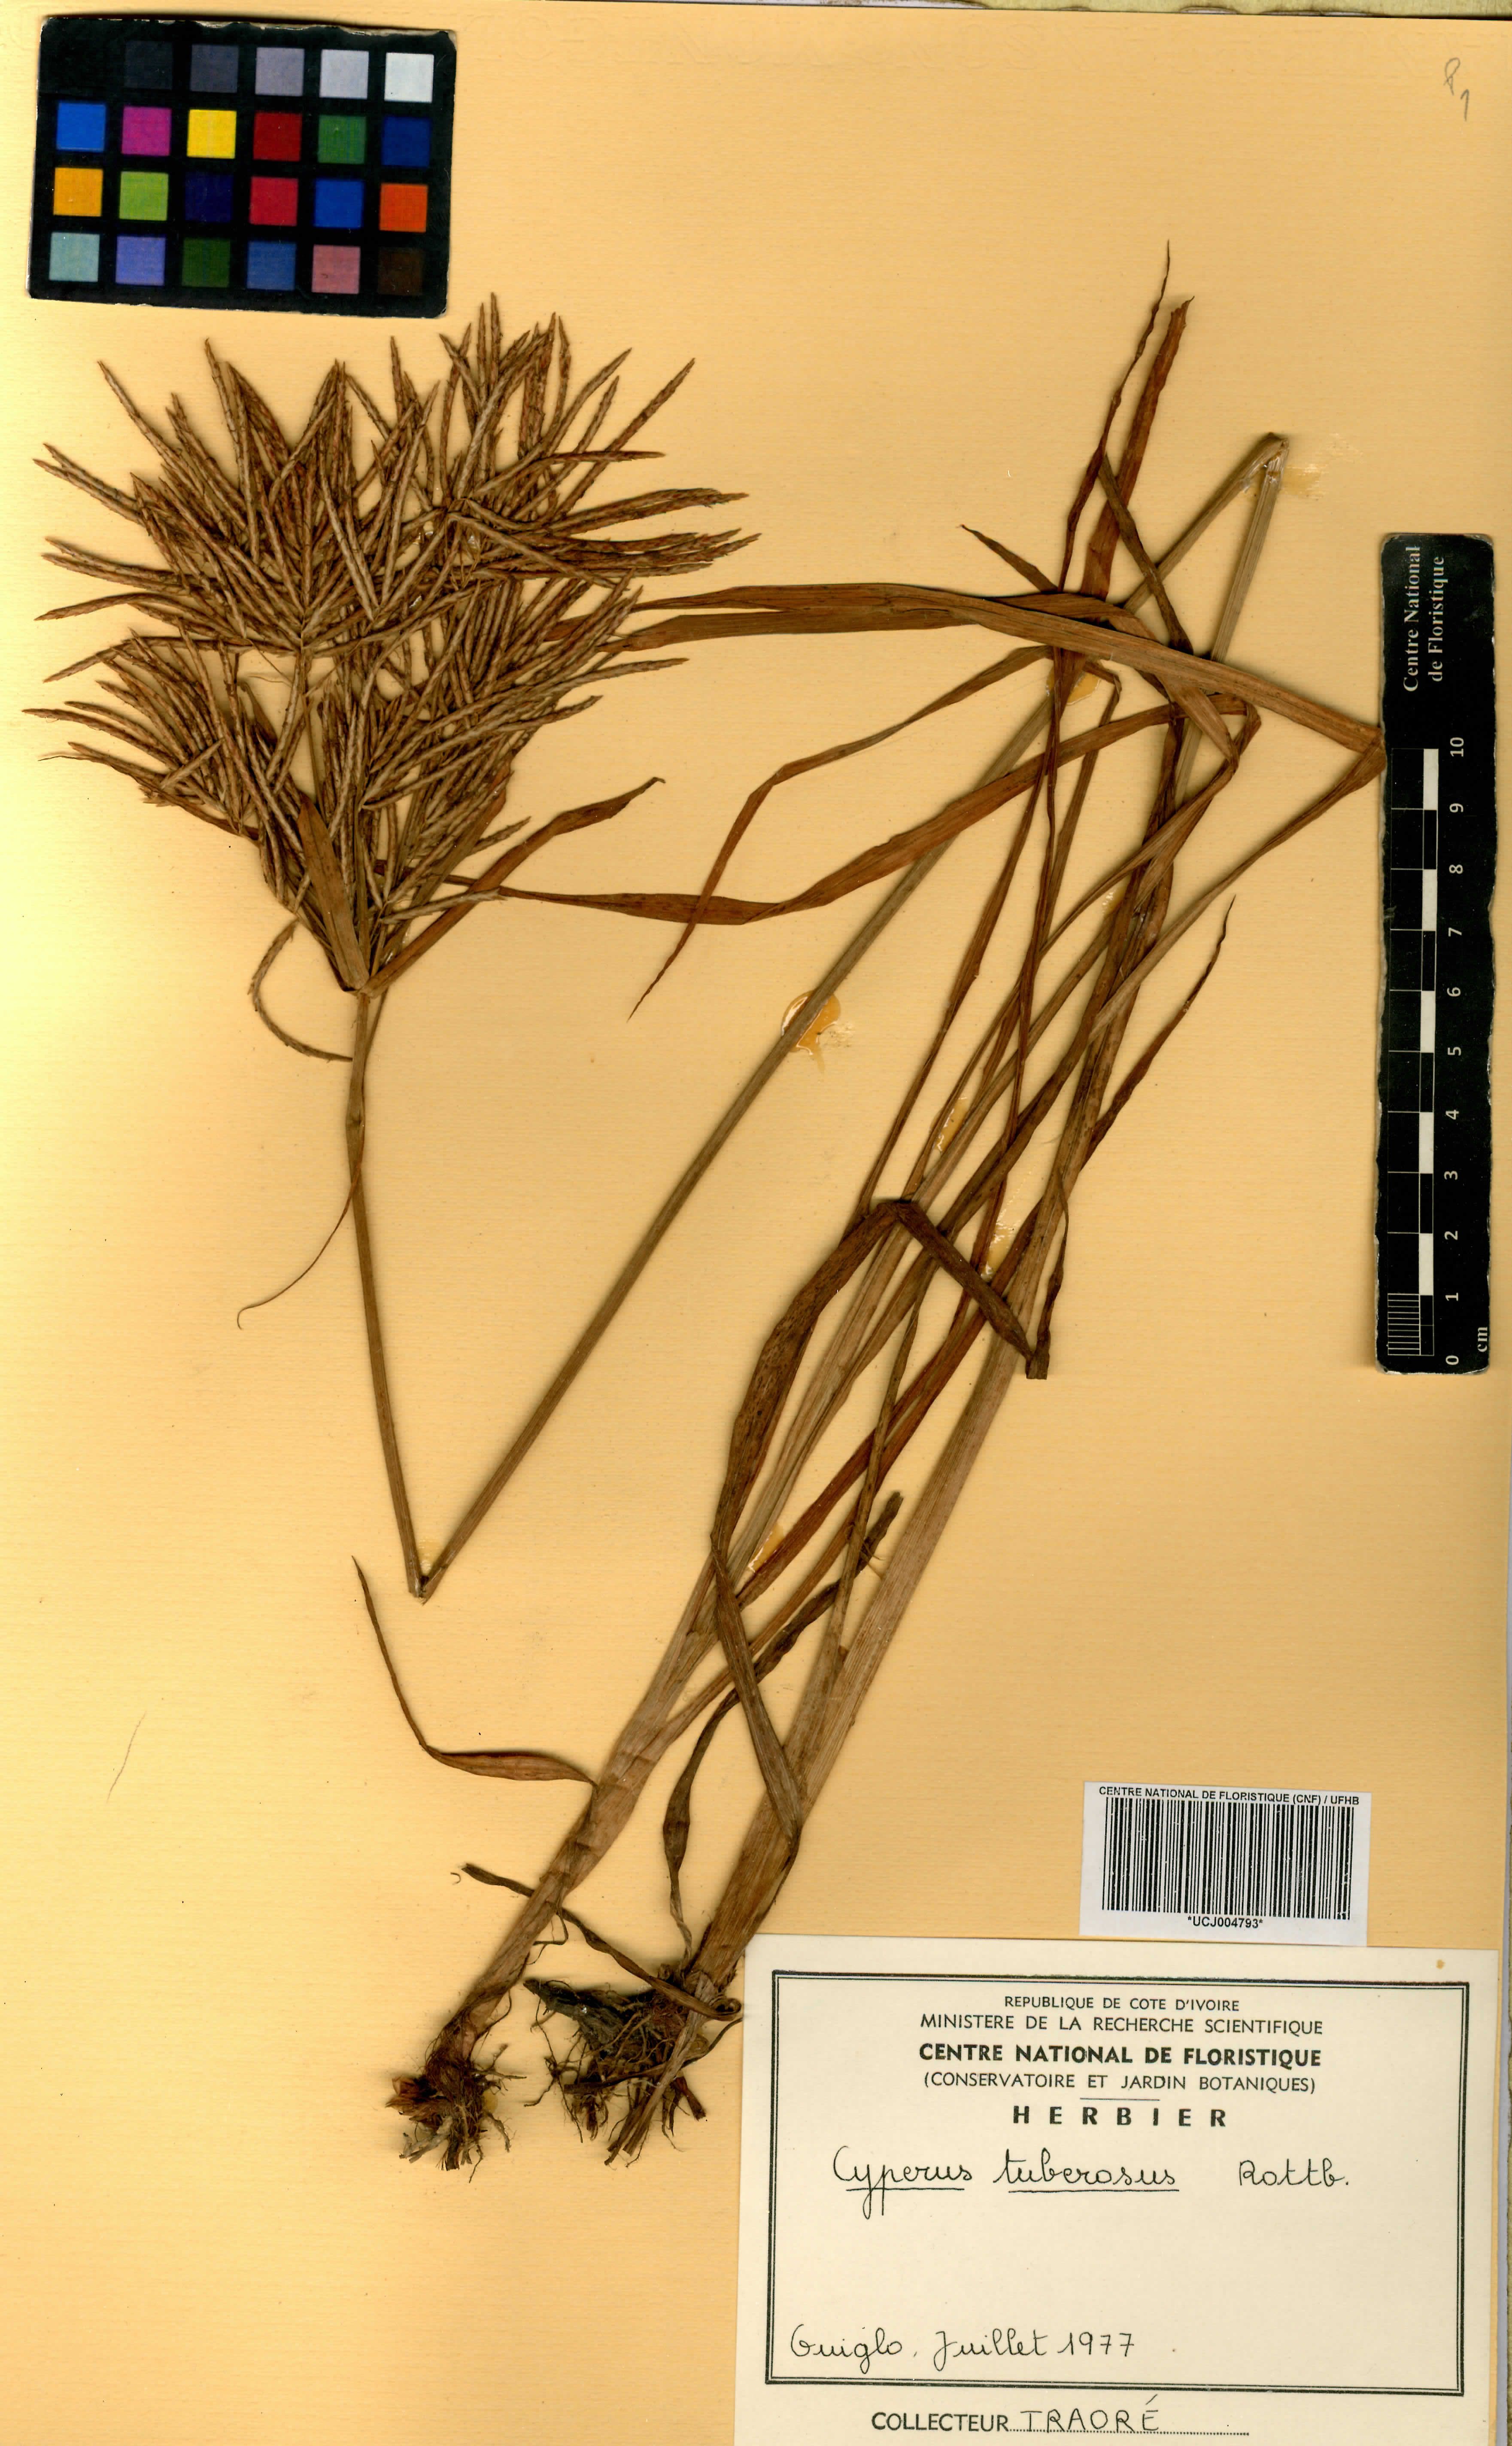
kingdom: Plantae
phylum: Tracheophyta
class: Liliopsida
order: Poales
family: Cyperaceae
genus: Cyperus
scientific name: Cyperus tuberosus
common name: Nut grass
